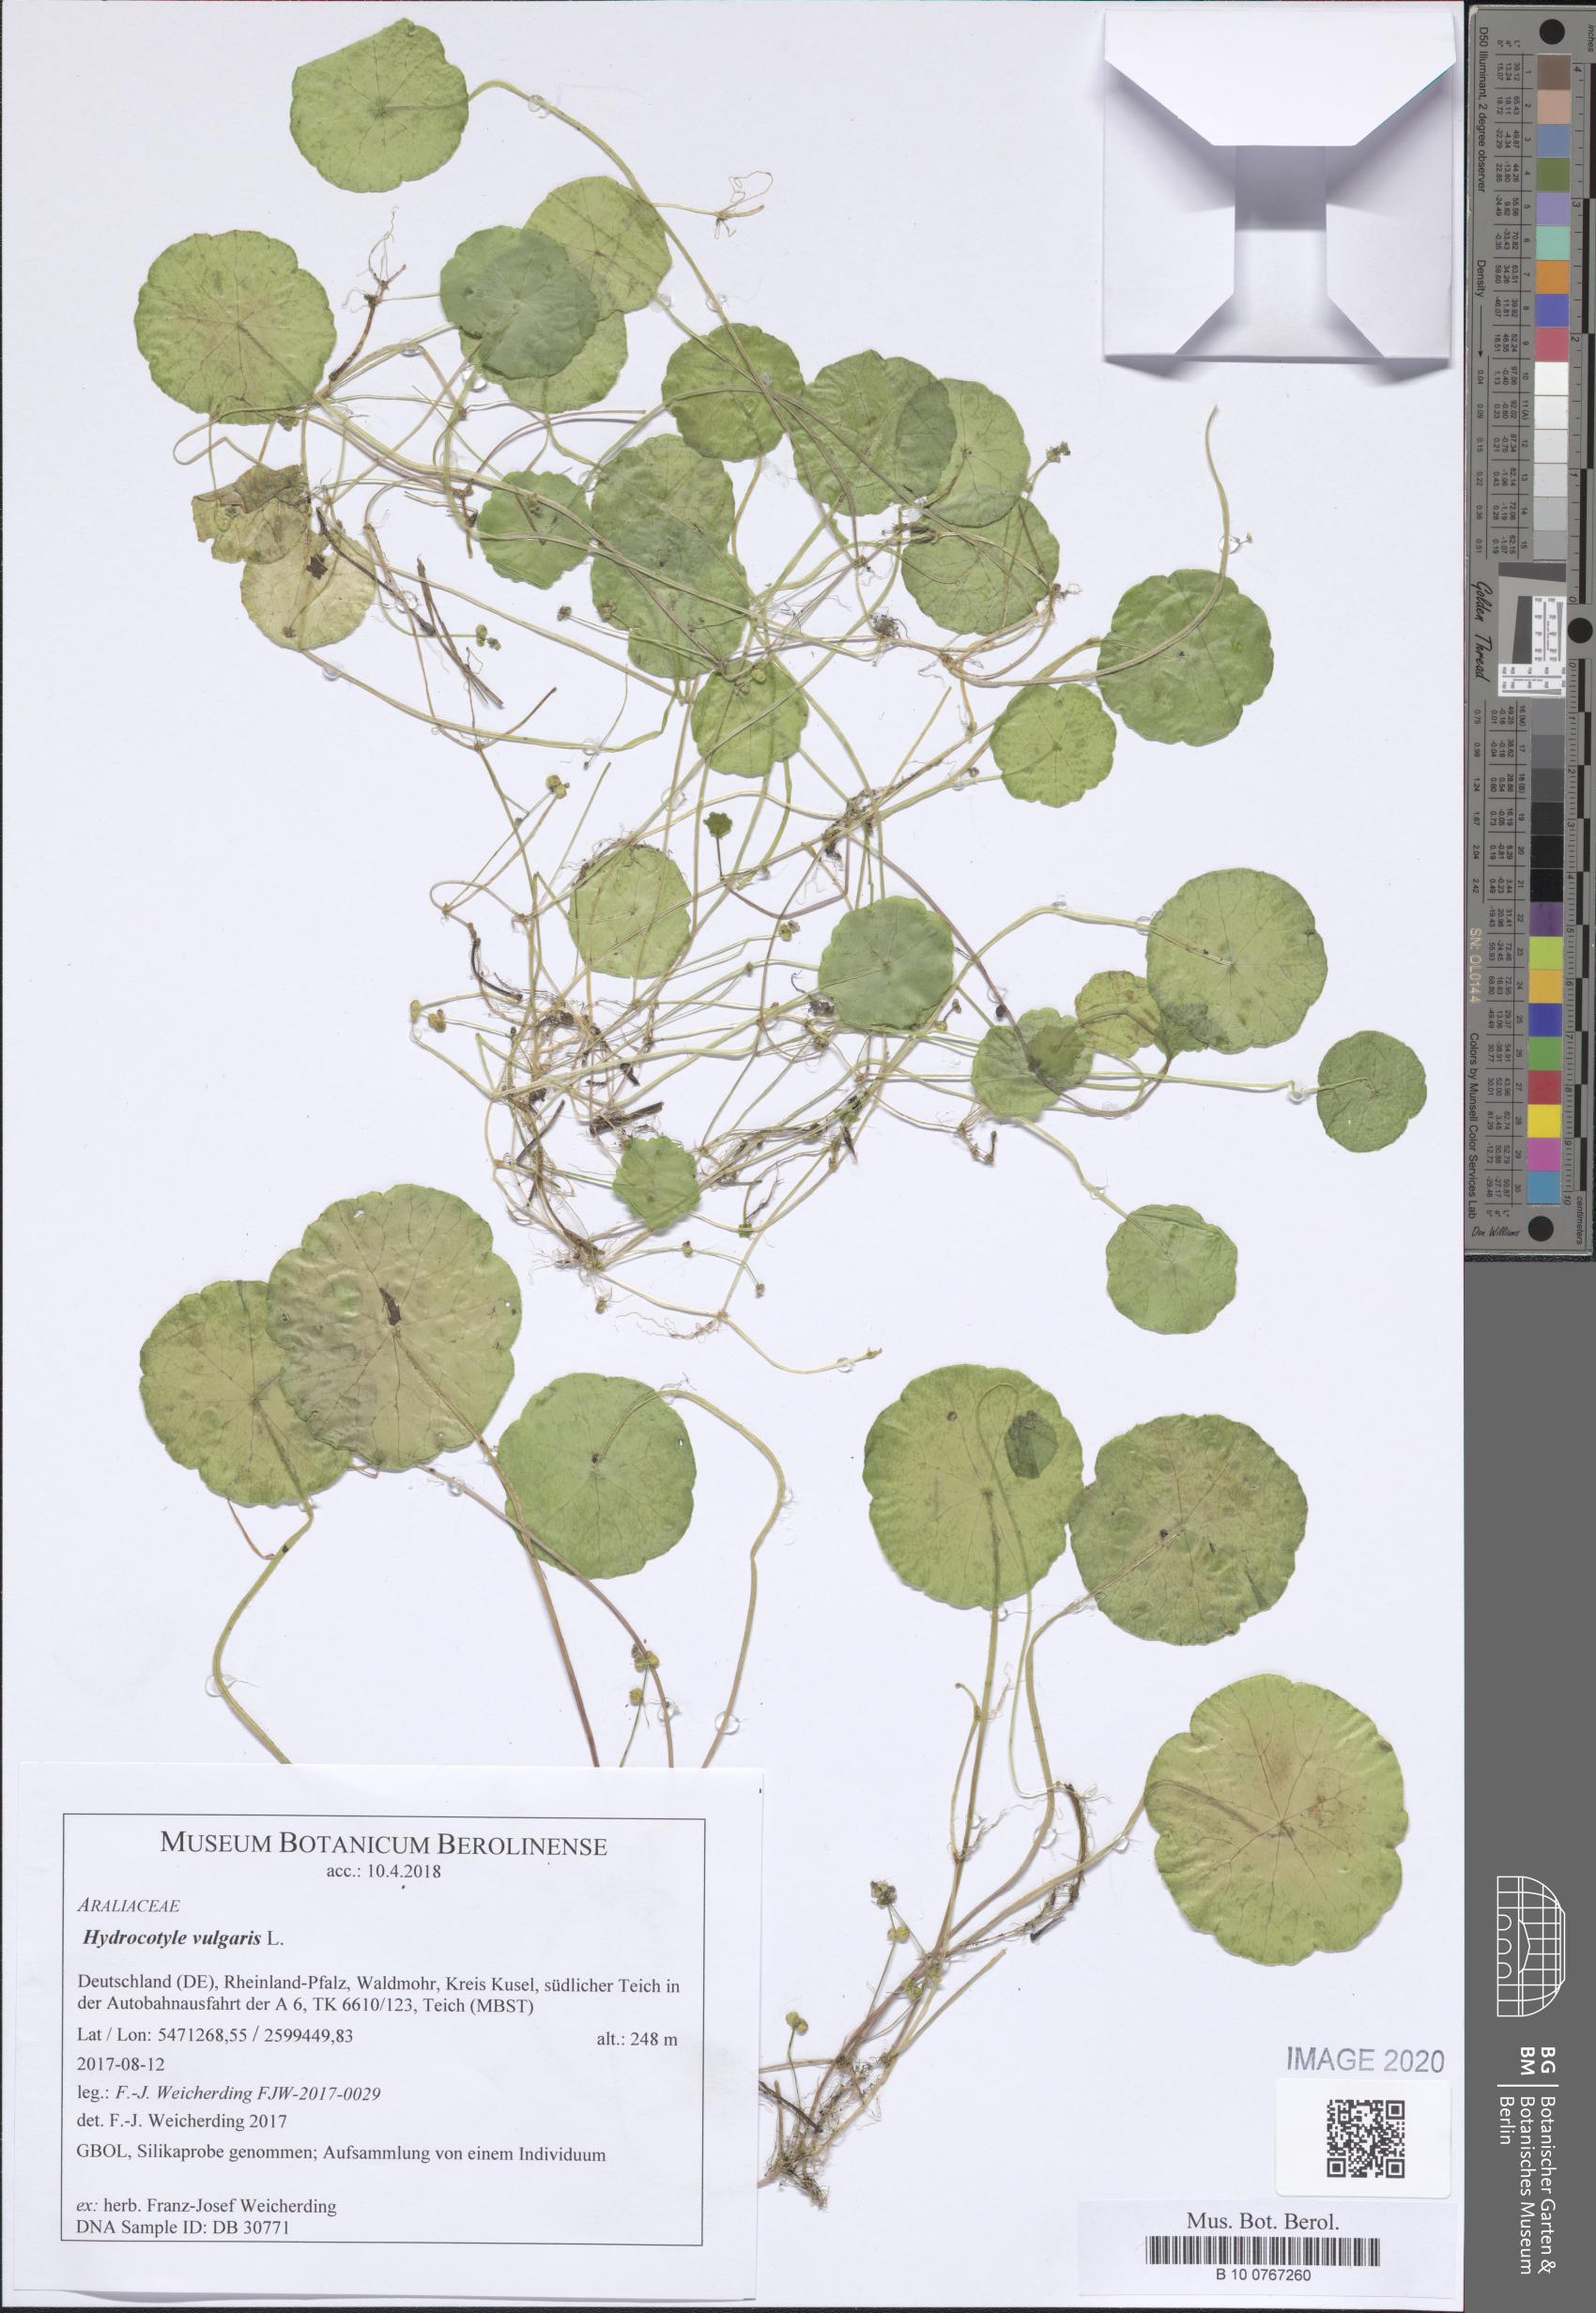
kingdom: Plantae
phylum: Tracheophyta
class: Magnoliopsida
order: Apiales
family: Araliaceae
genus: Hydrocotyle
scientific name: Hydrocotyle vulgaris
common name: Marsh pennywort
